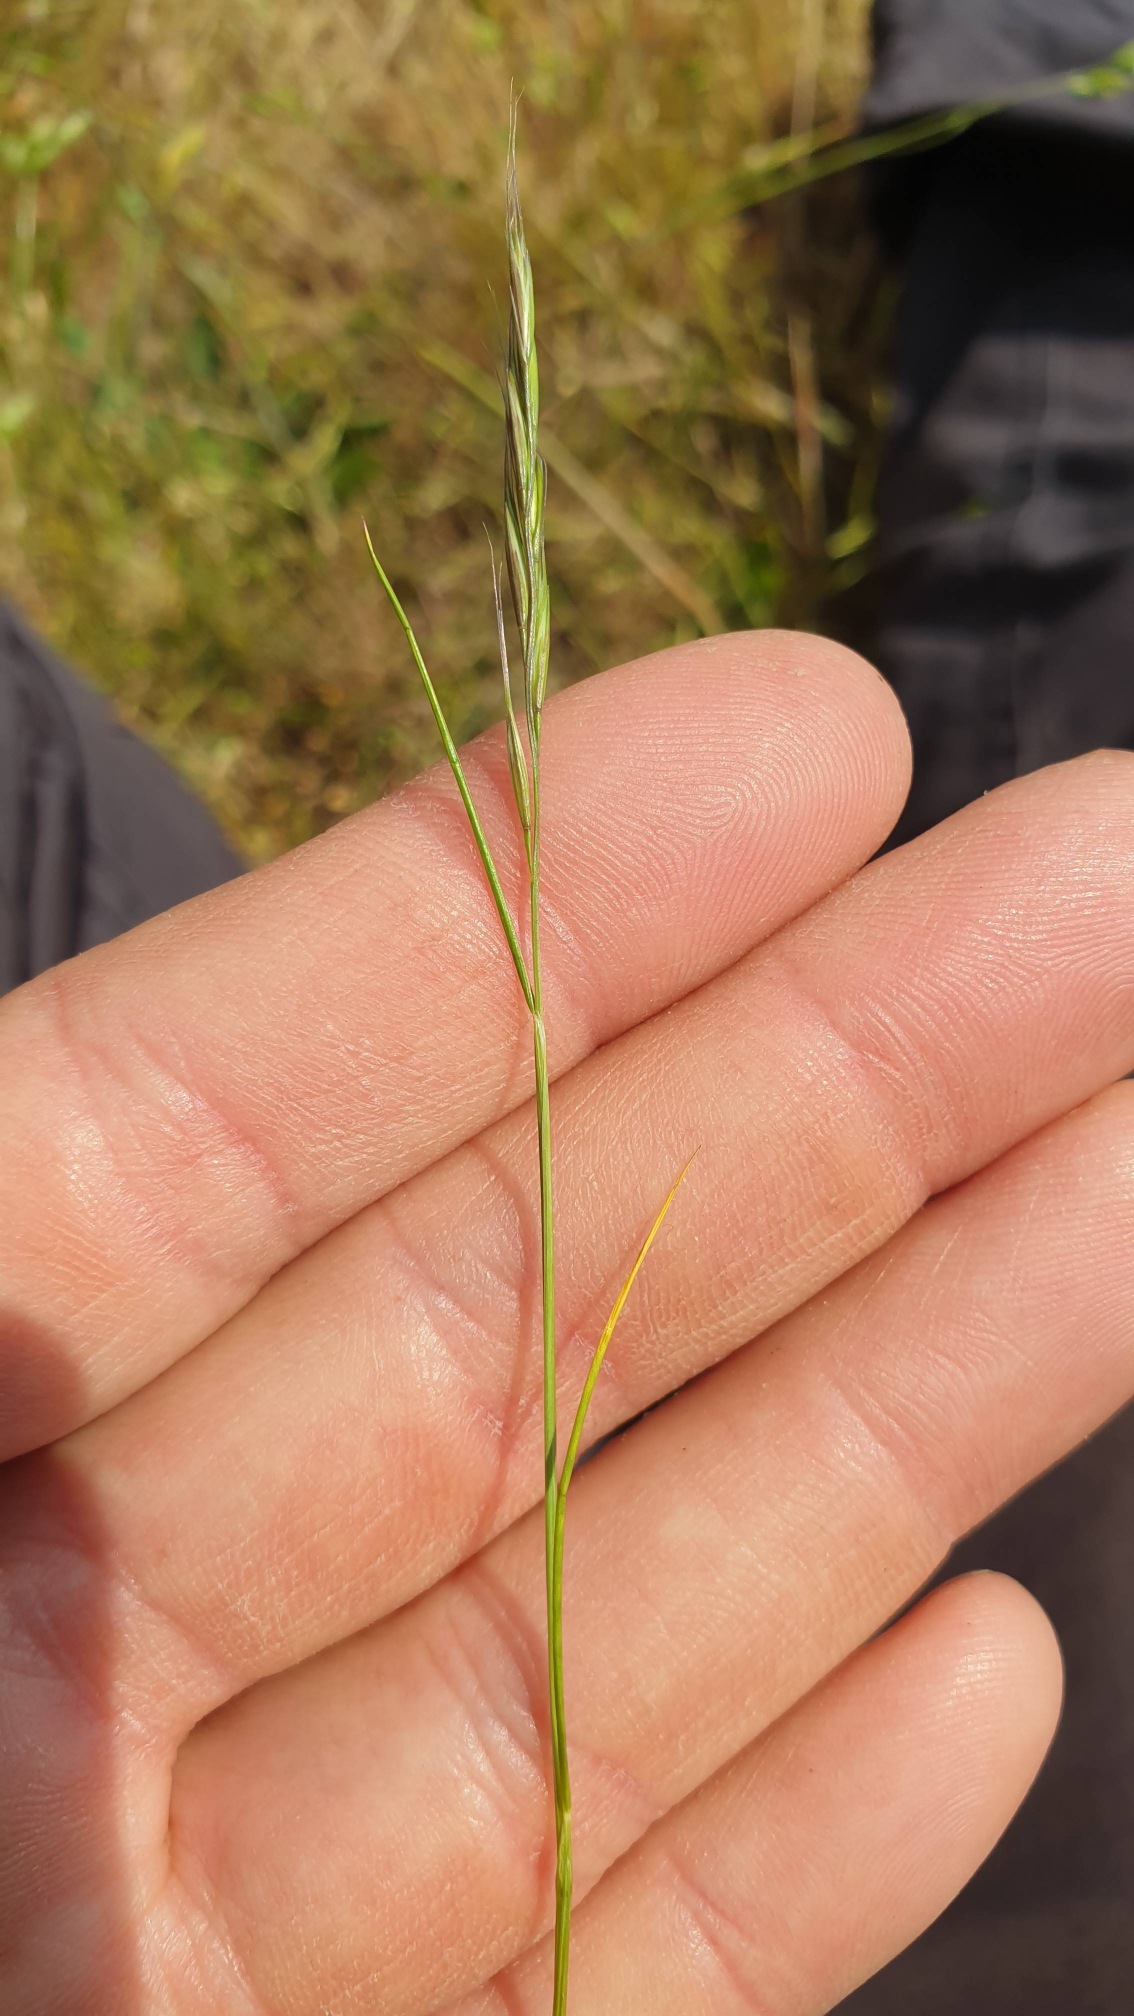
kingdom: Plantae
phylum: Tracheophyta
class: Liliopsida
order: Poales
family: Poaceae
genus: Festuca
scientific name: Festuca bromoides
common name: Langstakket væselhale
